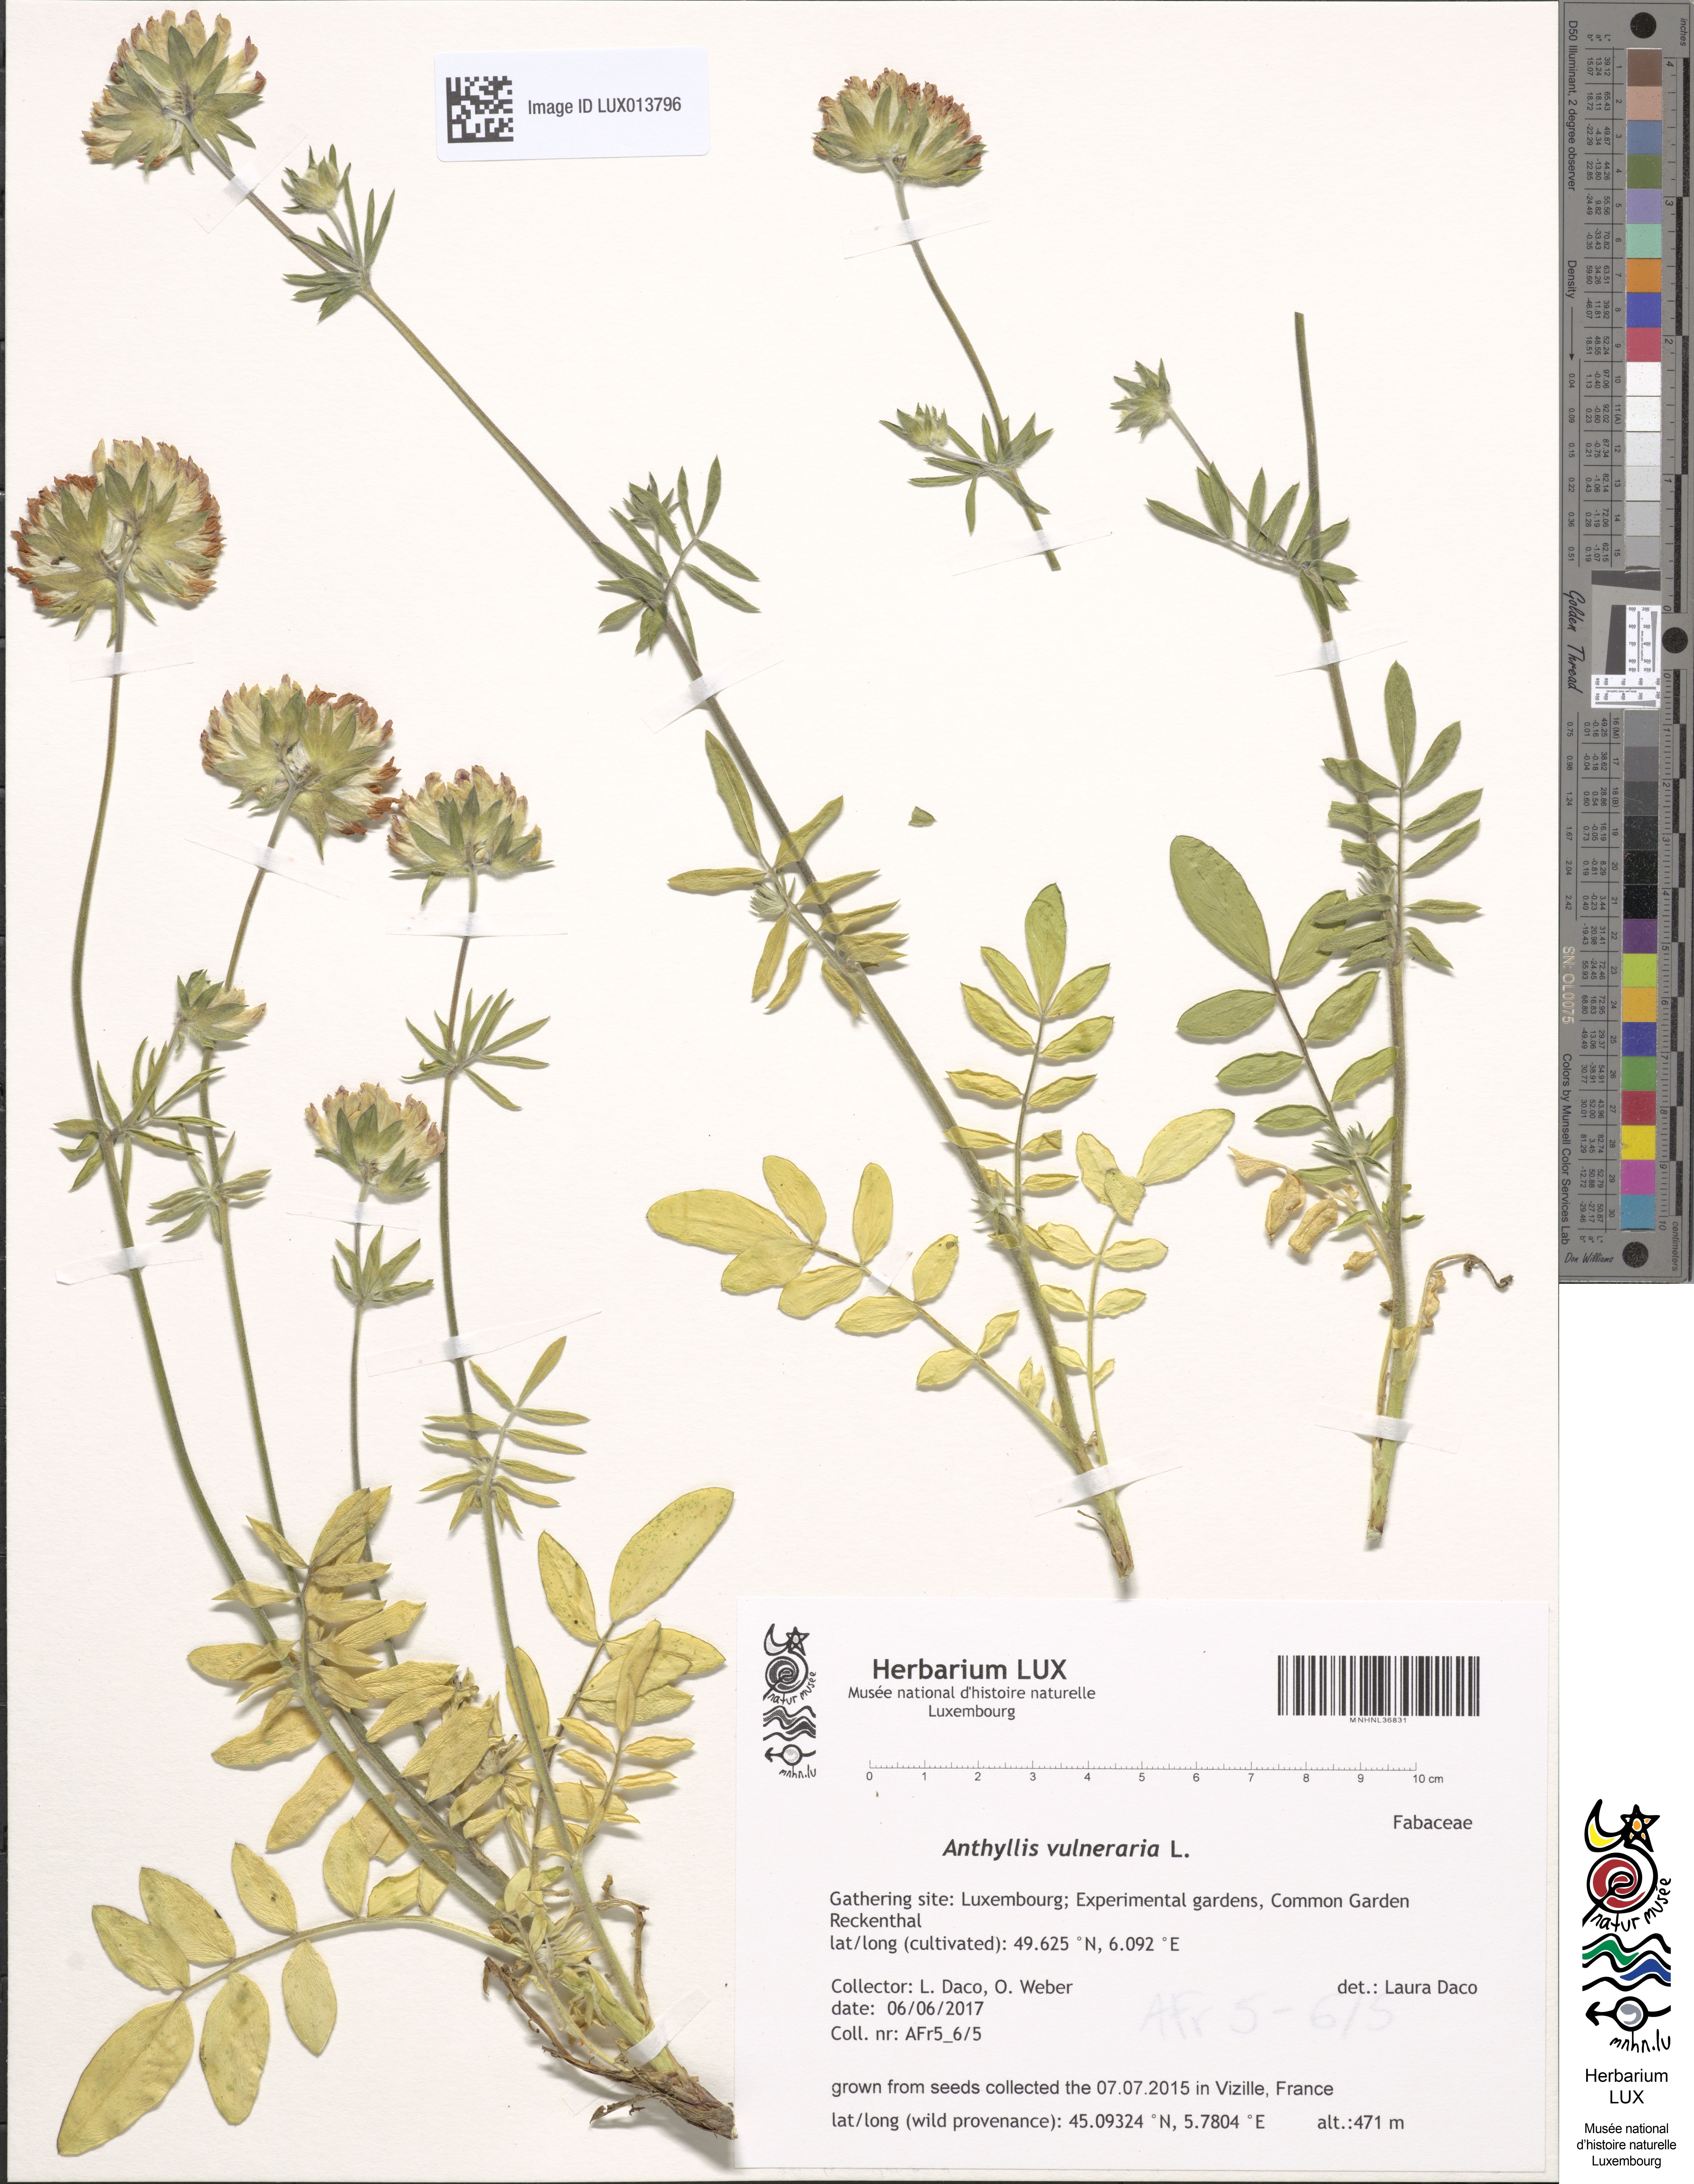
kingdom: Plantae
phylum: Tracheophyta
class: Magnoliopsida
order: Fabales
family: Fabaceae
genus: Anthyllis
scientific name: Anthyllis vulneraria
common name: Kidney vetch
